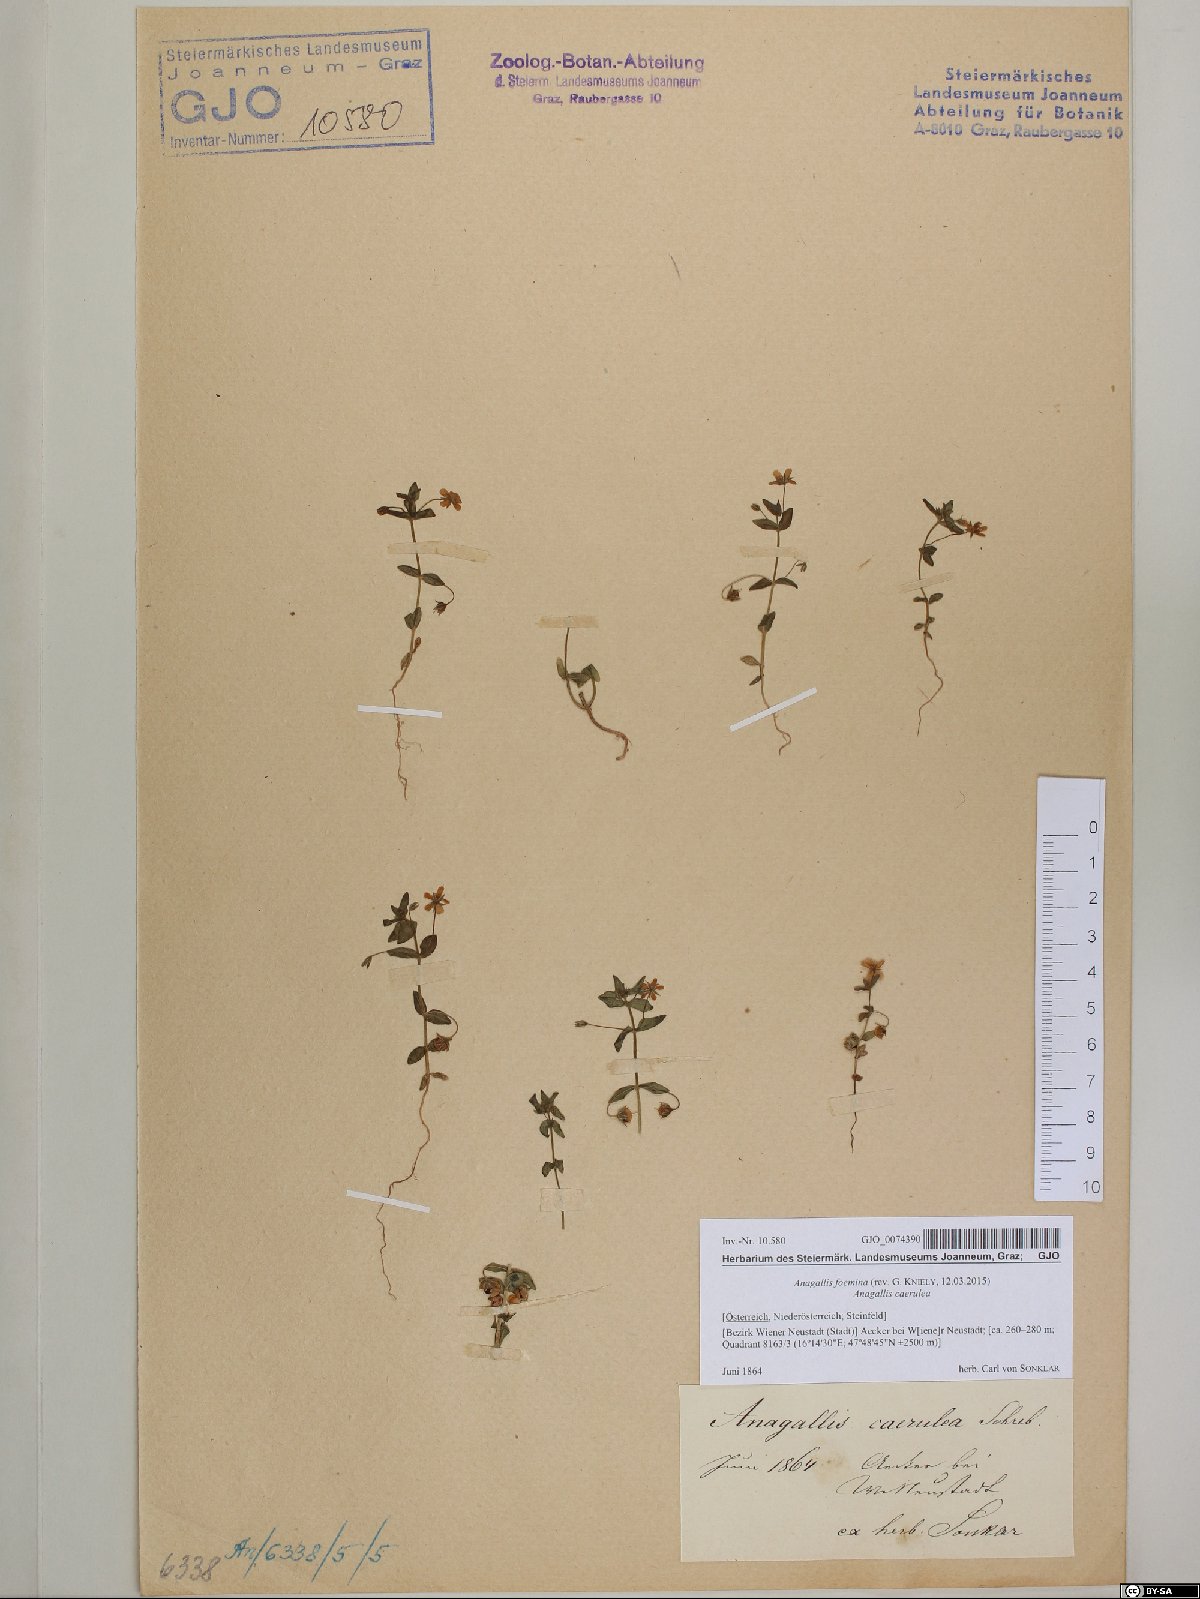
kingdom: Plantae
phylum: Tracheophyta
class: Magnoliopsida
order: Ericales
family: Primulaceae
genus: Lysimachia
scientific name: Lysimachia foemina
